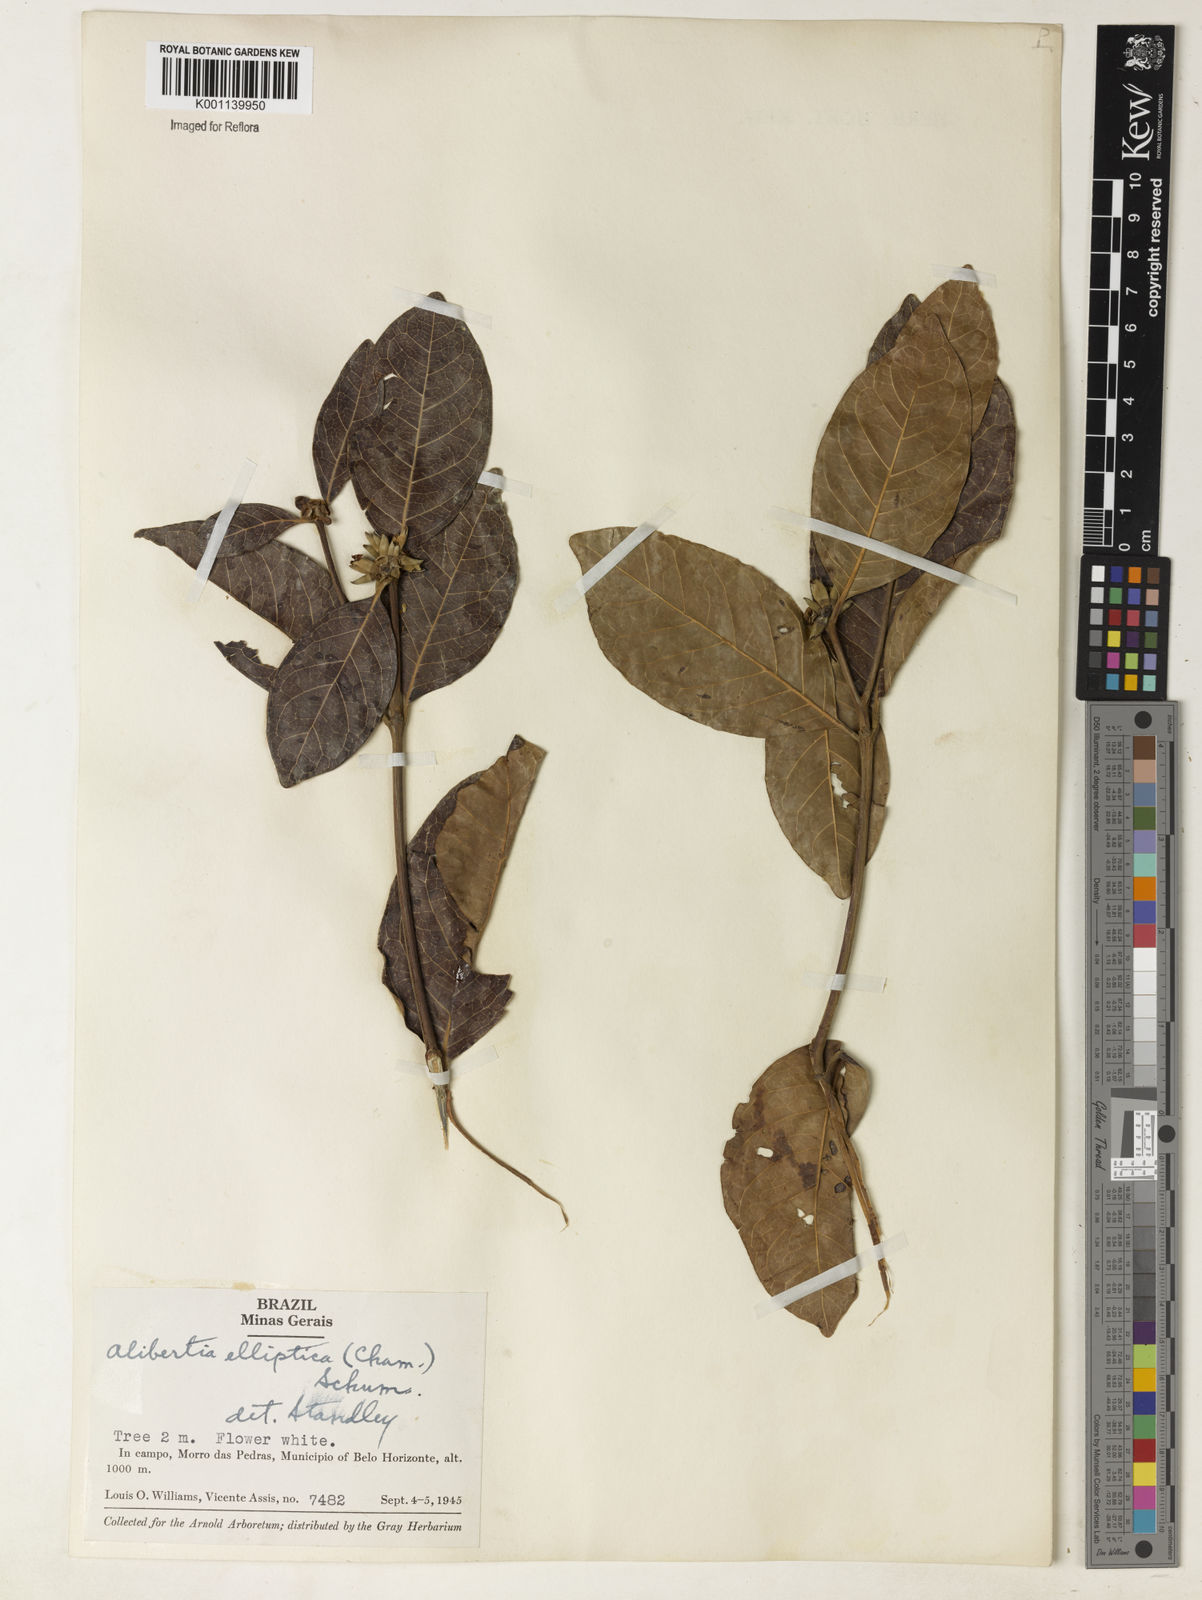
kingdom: Plantae
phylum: Tracheophyta
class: Magnoliopsida
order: Gentianales
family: Rubiaceae
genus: Alibertia
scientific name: Alibertia
